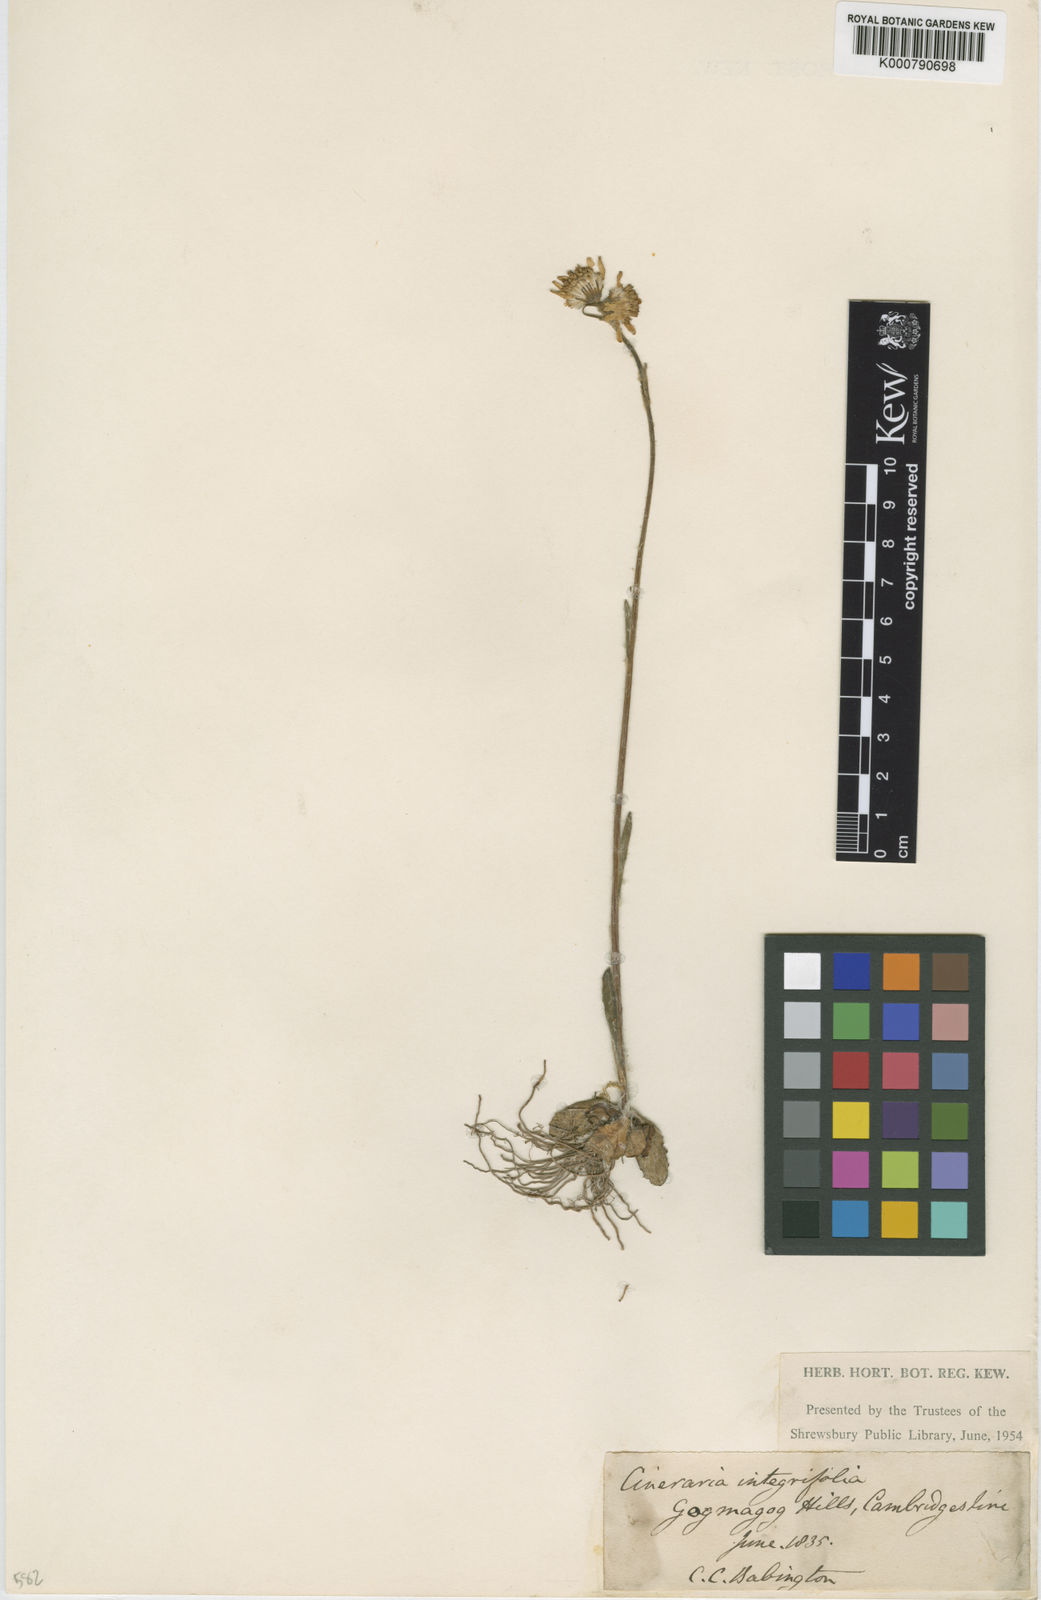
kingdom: Plantae
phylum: Tracheophyta
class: Magnoliopsida
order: Asterales
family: Asteraceae
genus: Tephroseris
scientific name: Tephroseris integrifolia
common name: Field fleawort
